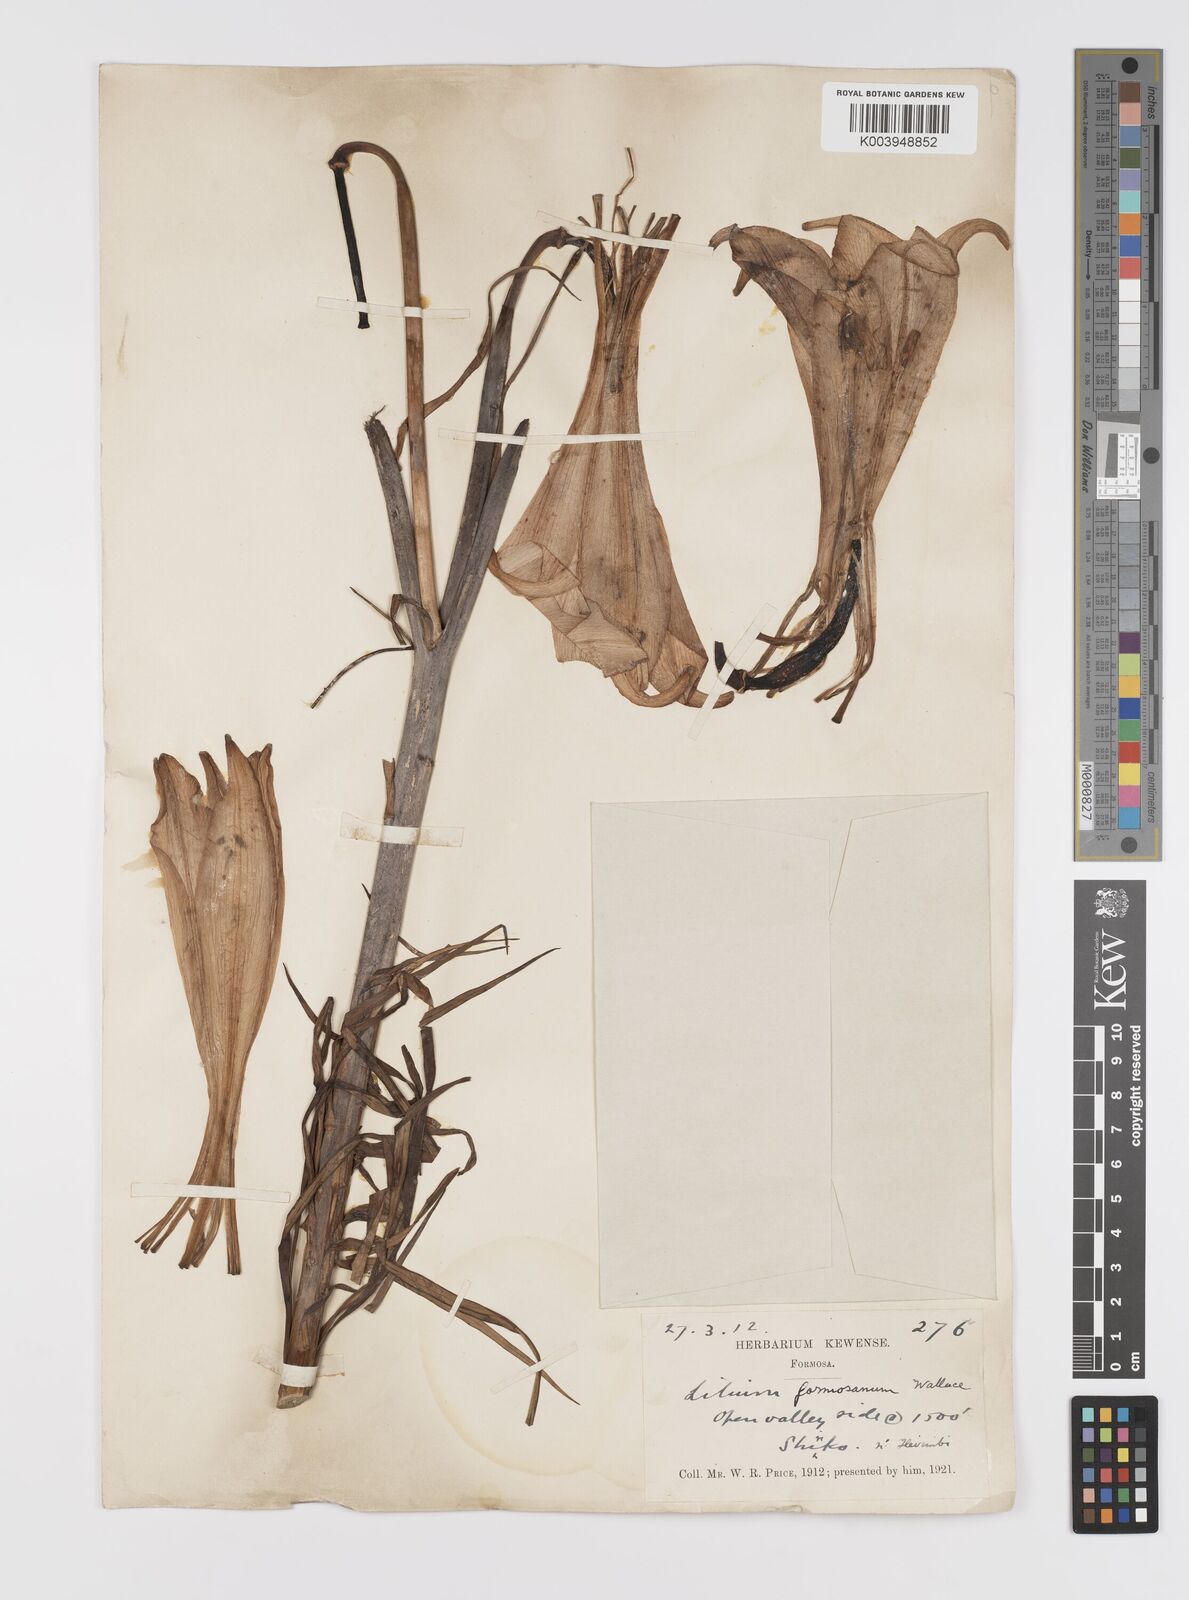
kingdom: Plantae
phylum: Tracheophyta
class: Liliopsida
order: Liliales
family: Liliaceae
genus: Lilium
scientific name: Lilium formosanum
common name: Formosa lily
